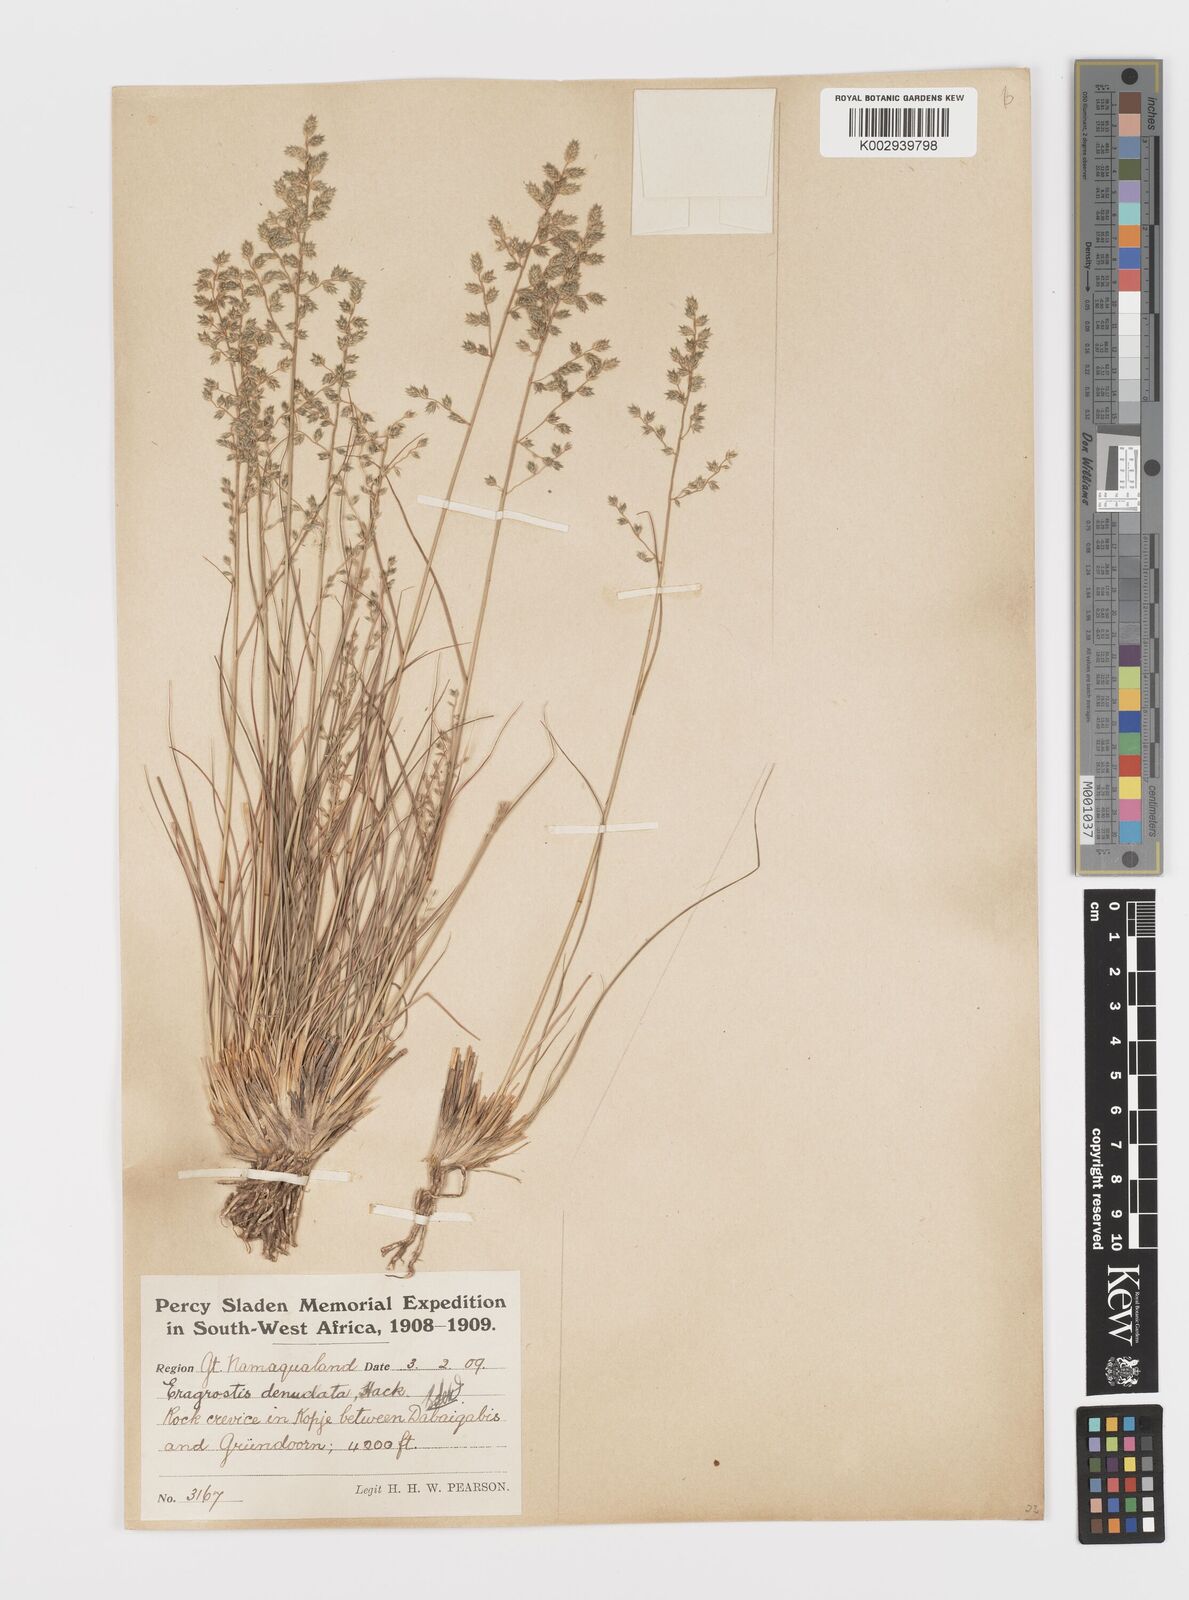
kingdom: Plantae
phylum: Tracheophyta
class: Liliopsida
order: Poales
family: Poaceae
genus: Eragrostis
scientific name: Eragrostis nindensis
